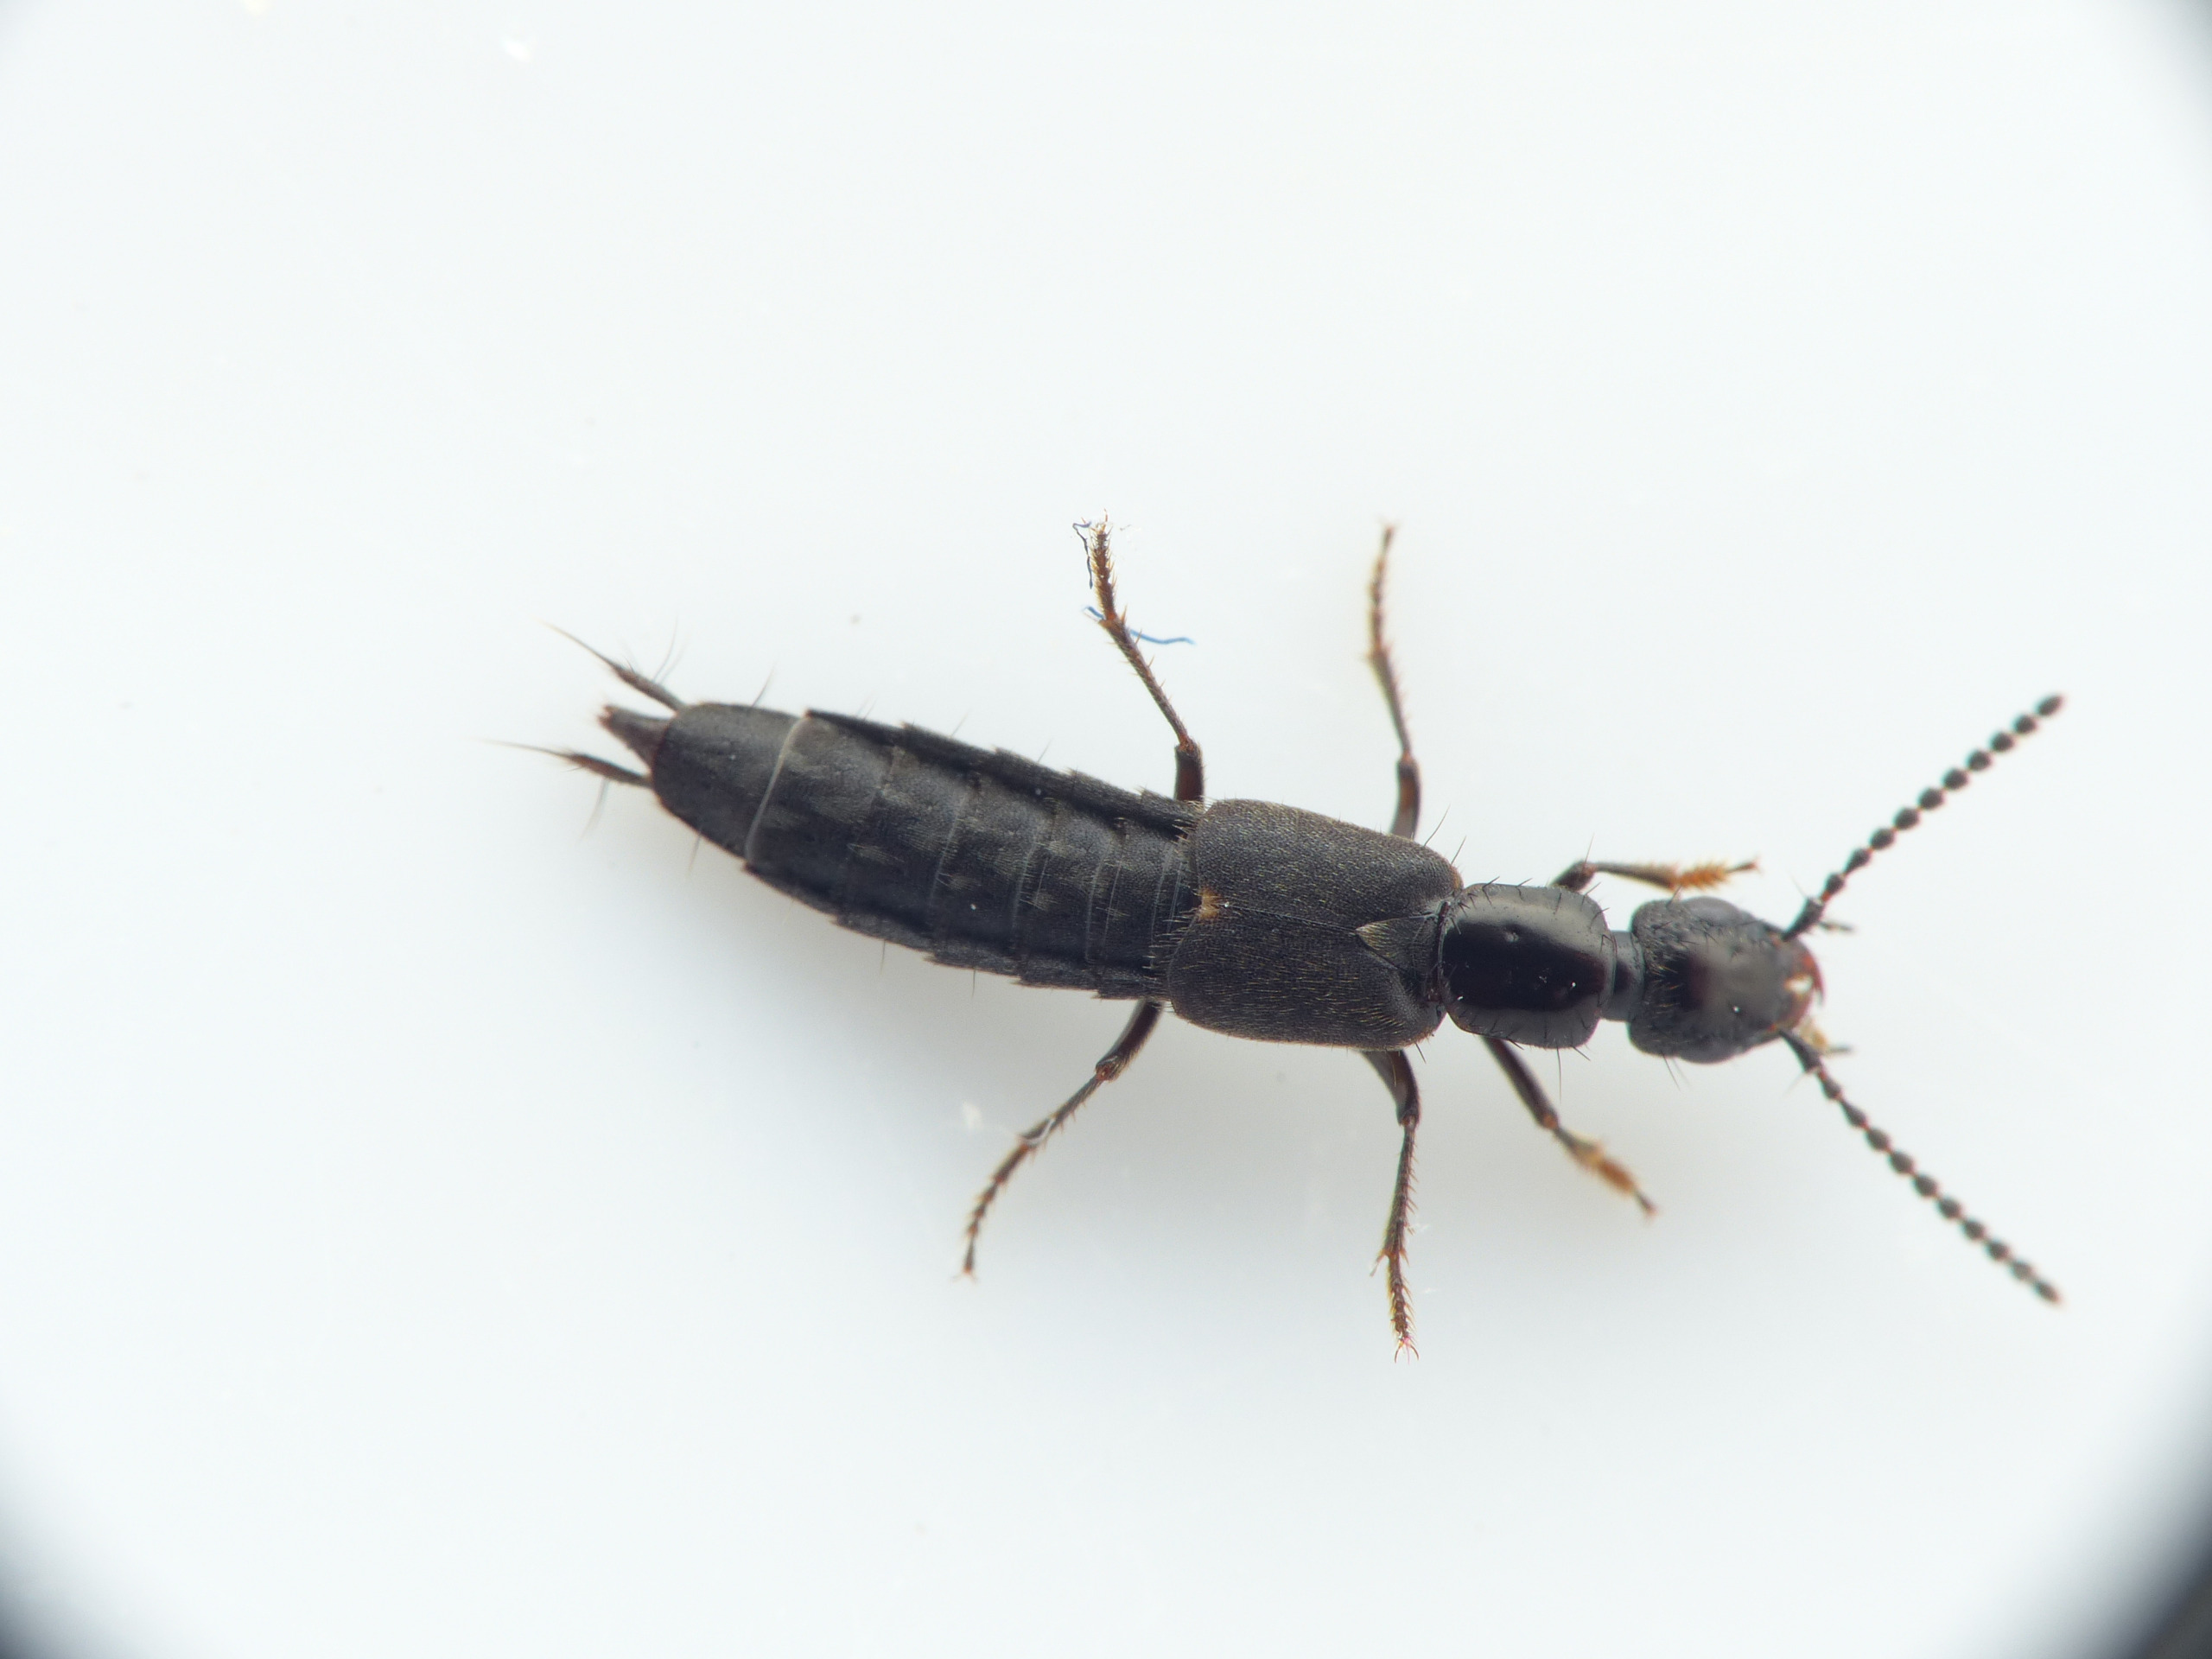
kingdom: Animalia
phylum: Arthropoda
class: Insecta
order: Coleoptera
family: Staphylinidae
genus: Cafius
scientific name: Cafius xantholoma
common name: Strandrovbille
